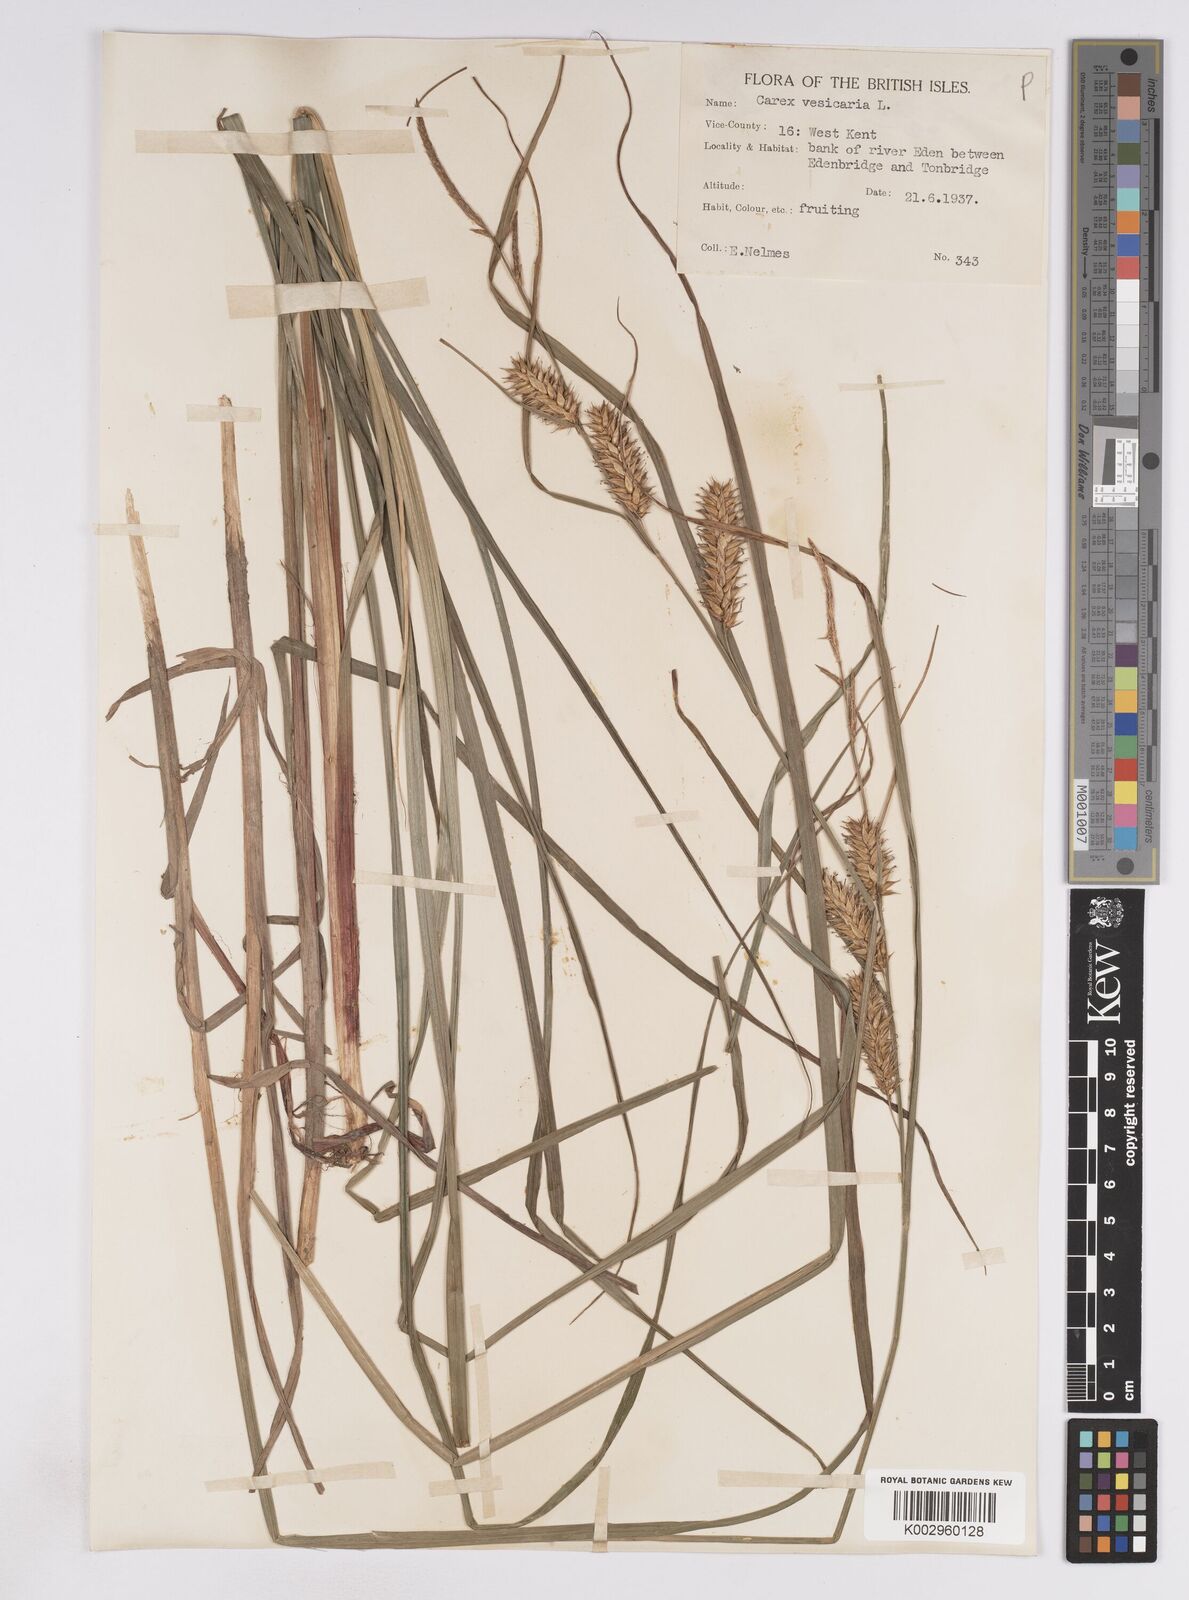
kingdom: Plantae
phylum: Tracheophyta
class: Liliopsida
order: Poales
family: Cyperaceae
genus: Carex
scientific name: Carex vesicaria
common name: Bladder-sedge
